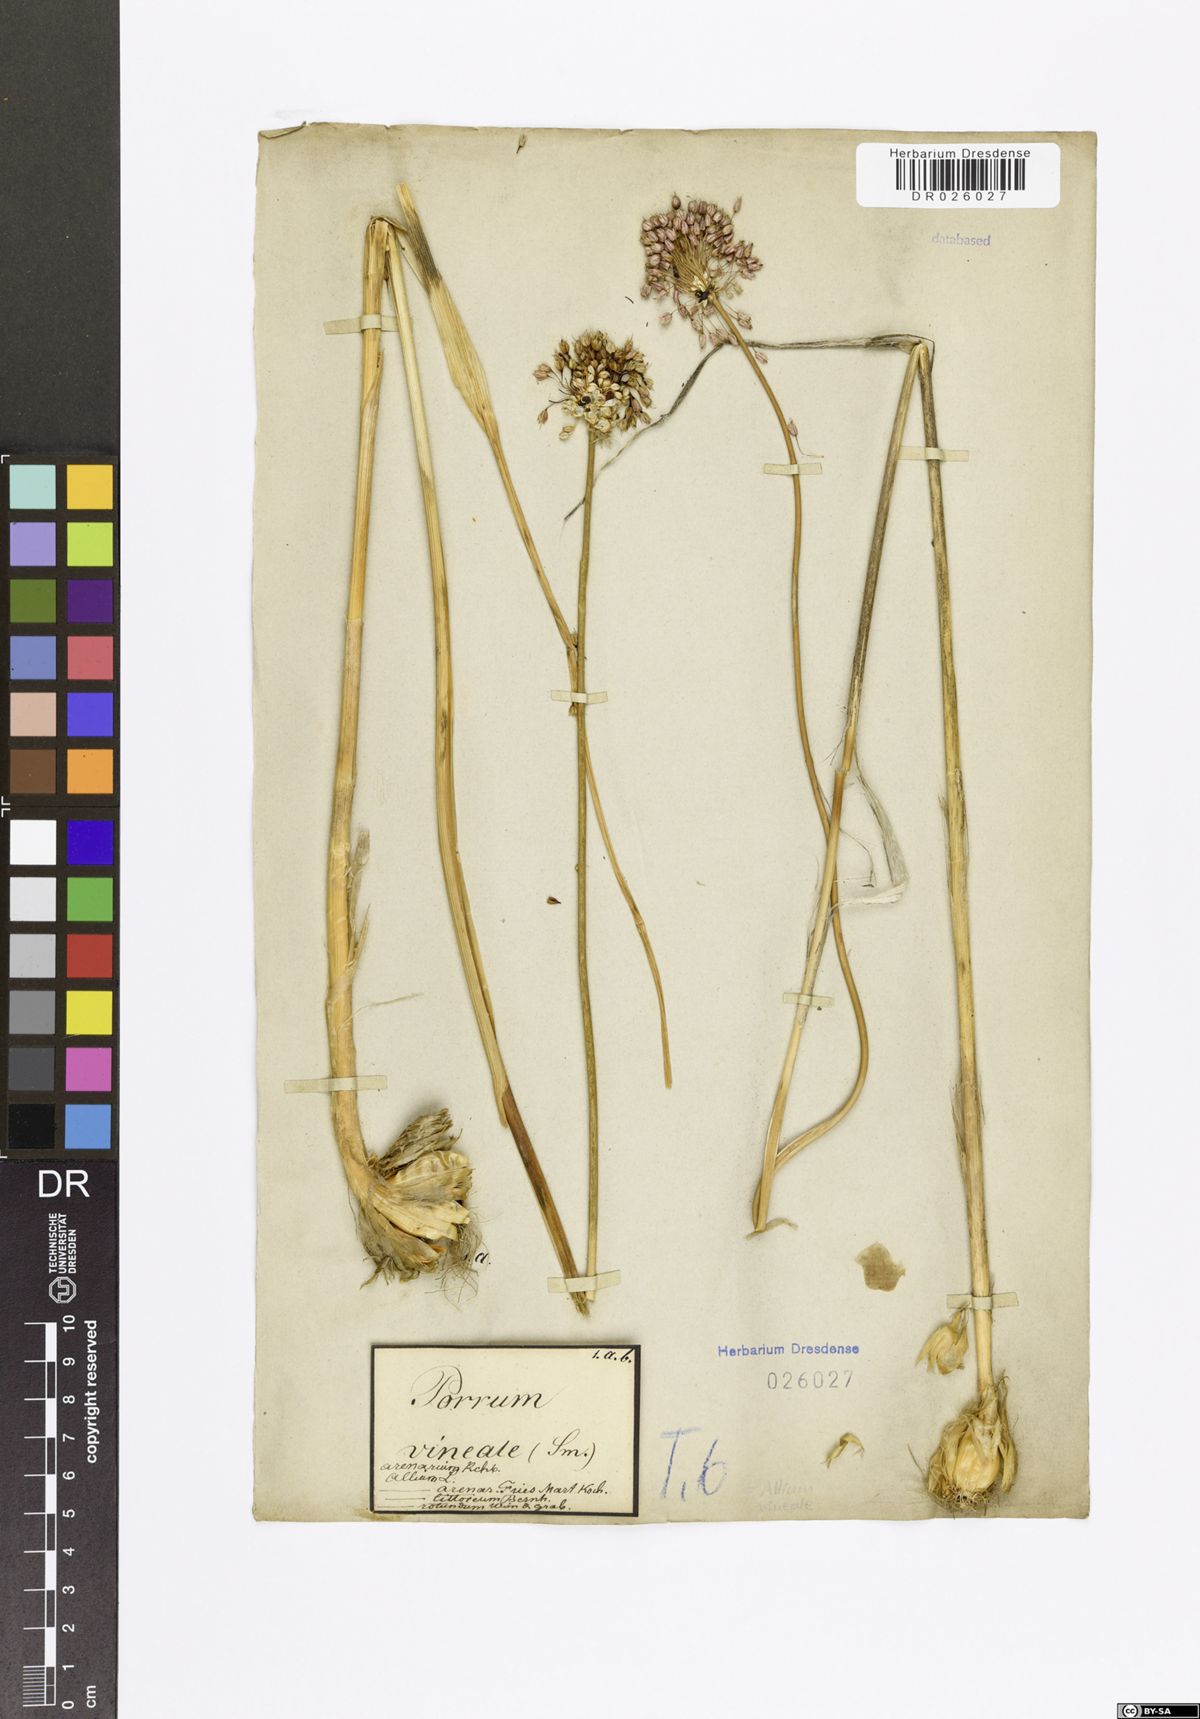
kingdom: Plantae
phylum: Tracheophyta
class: Liliopsida
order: Asparagales
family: Amaryllidaceae
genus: Allium
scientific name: Allium vineale
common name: Crow garlic
